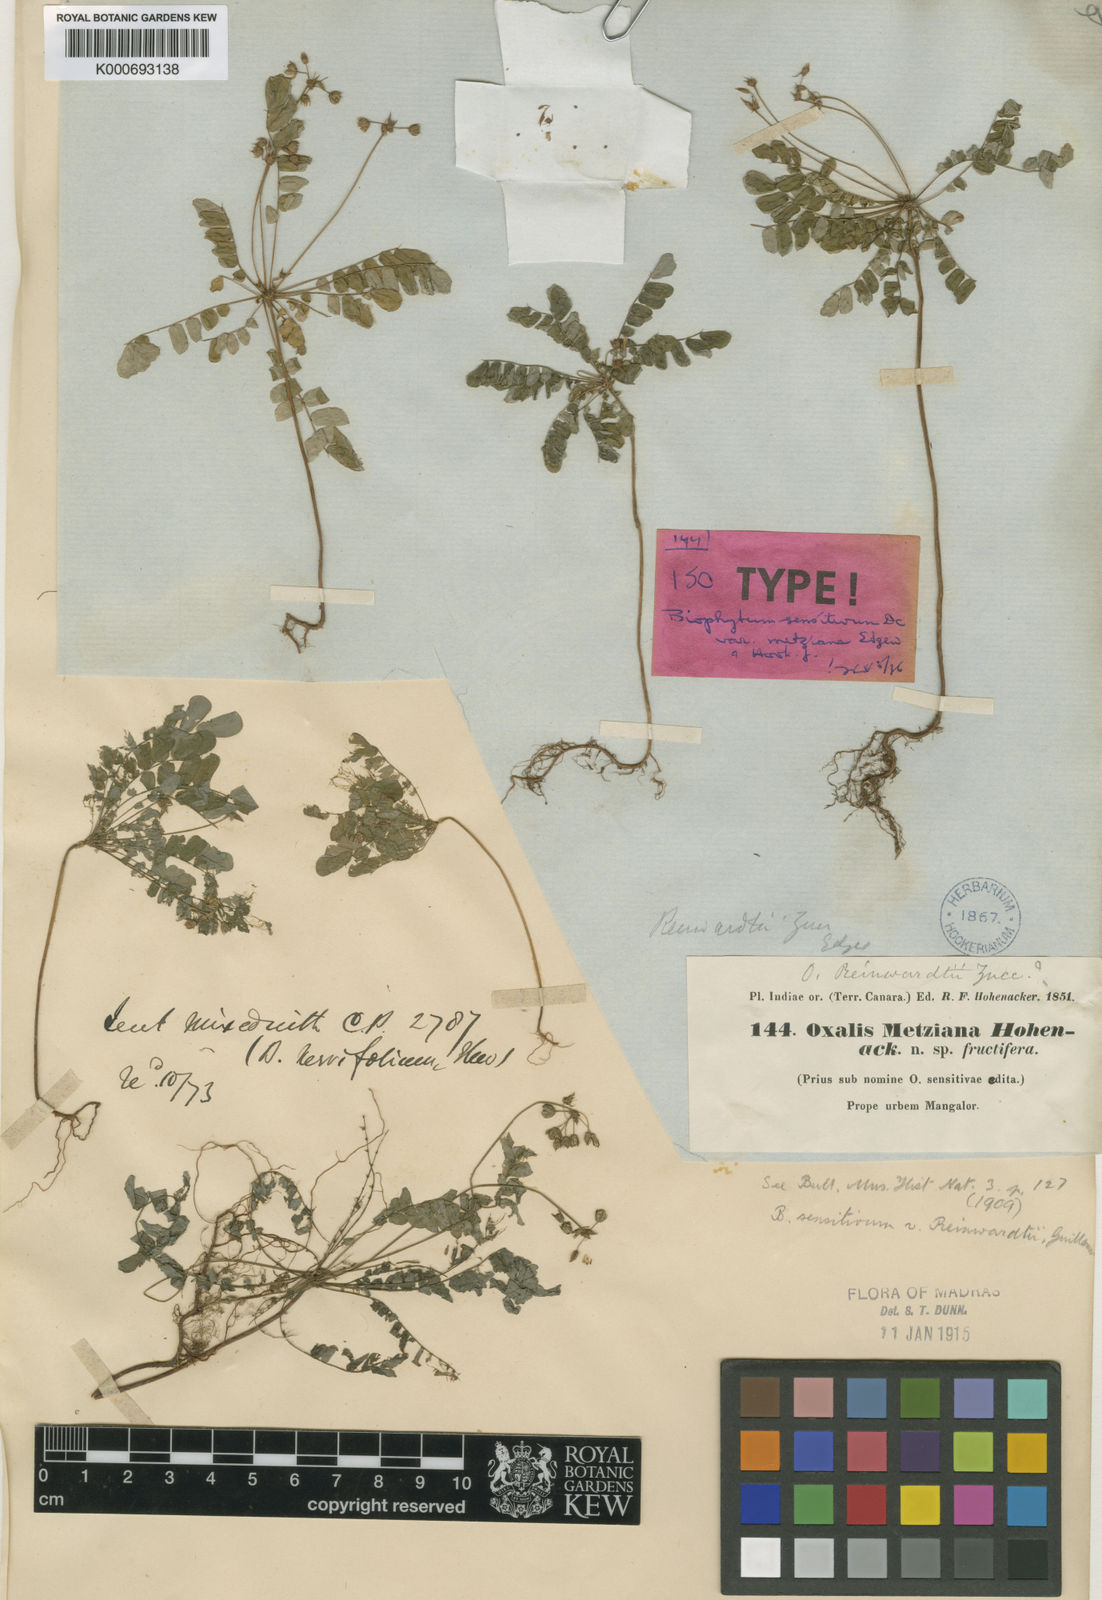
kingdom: Plantae
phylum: Tracheophyta
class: Magnoliopsida
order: Oxalidales
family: Oxalidaceae
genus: Biophytum
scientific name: Biophytum reinwardtii
